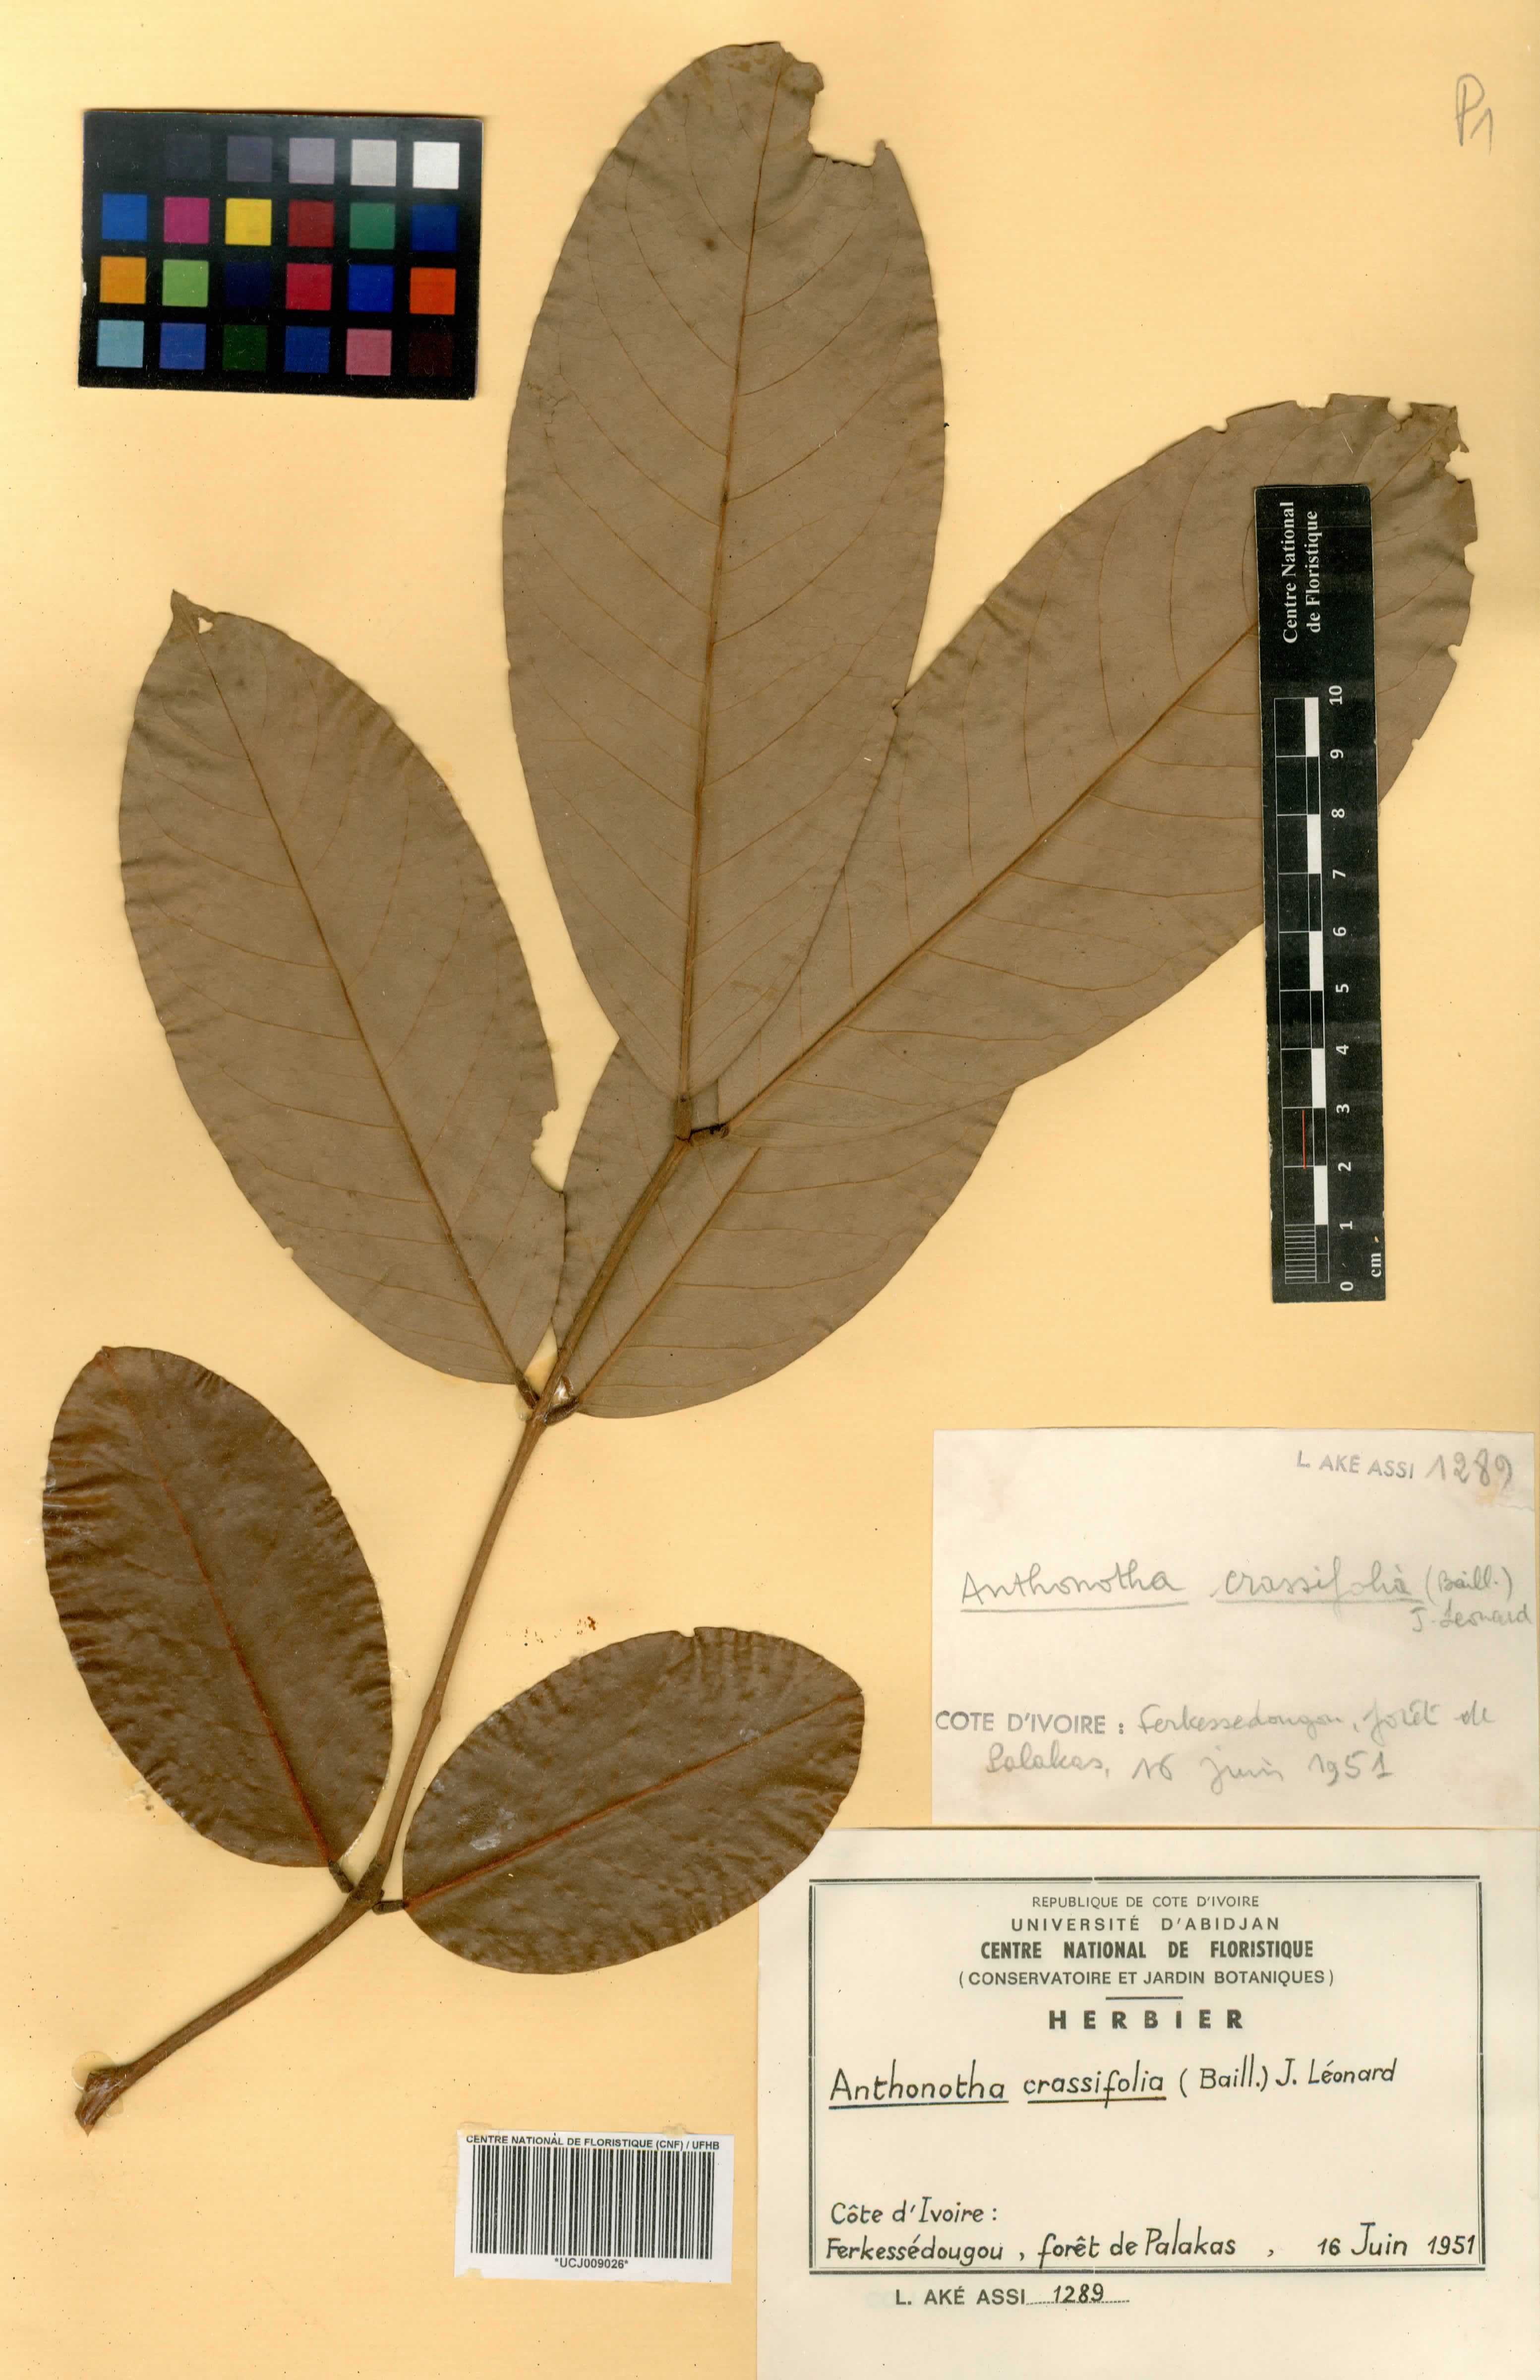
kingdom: Plantae
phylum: Tracheophyta
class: Magnoliopsida
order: Fabales
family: Fabaceae
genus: Anthonotha
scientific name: Anthonotha crassifolia
